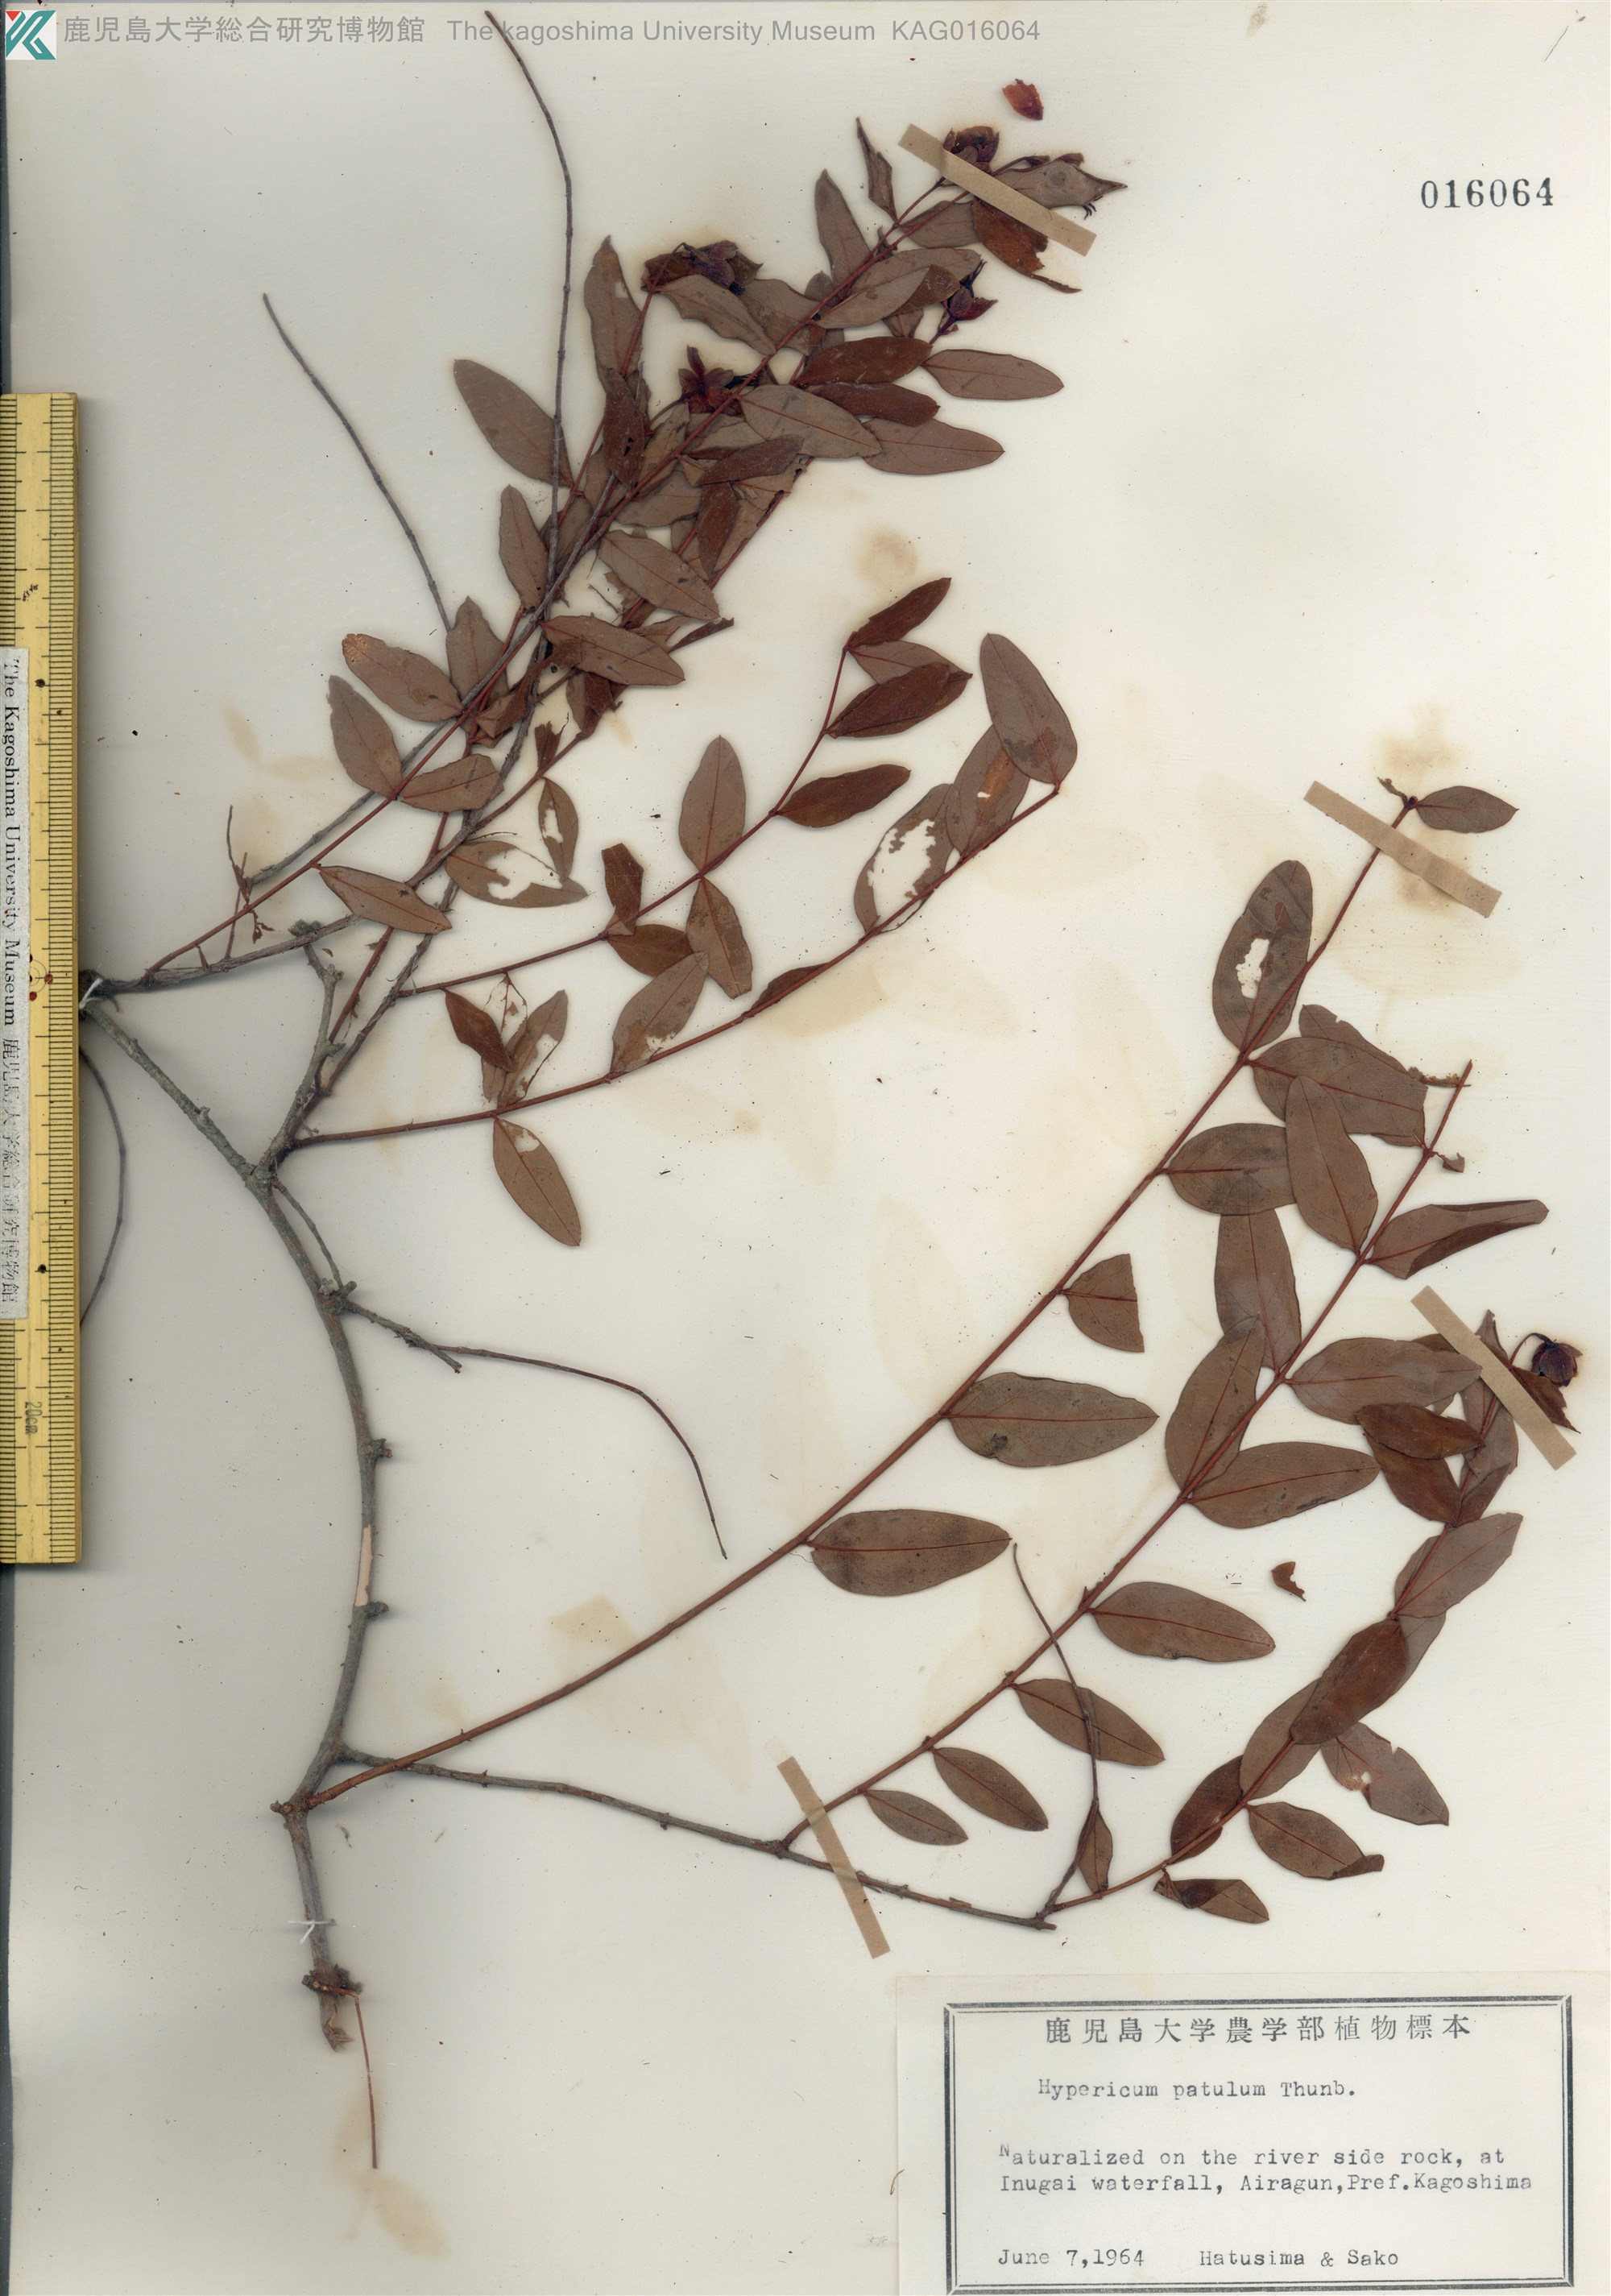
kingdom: Plantae
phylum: Tracheophyta
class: Magnoliopsida
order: Malpighiales
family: Hypericaceae
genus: Hypericum
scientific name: Hypericum patulum
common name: キンシバイ
